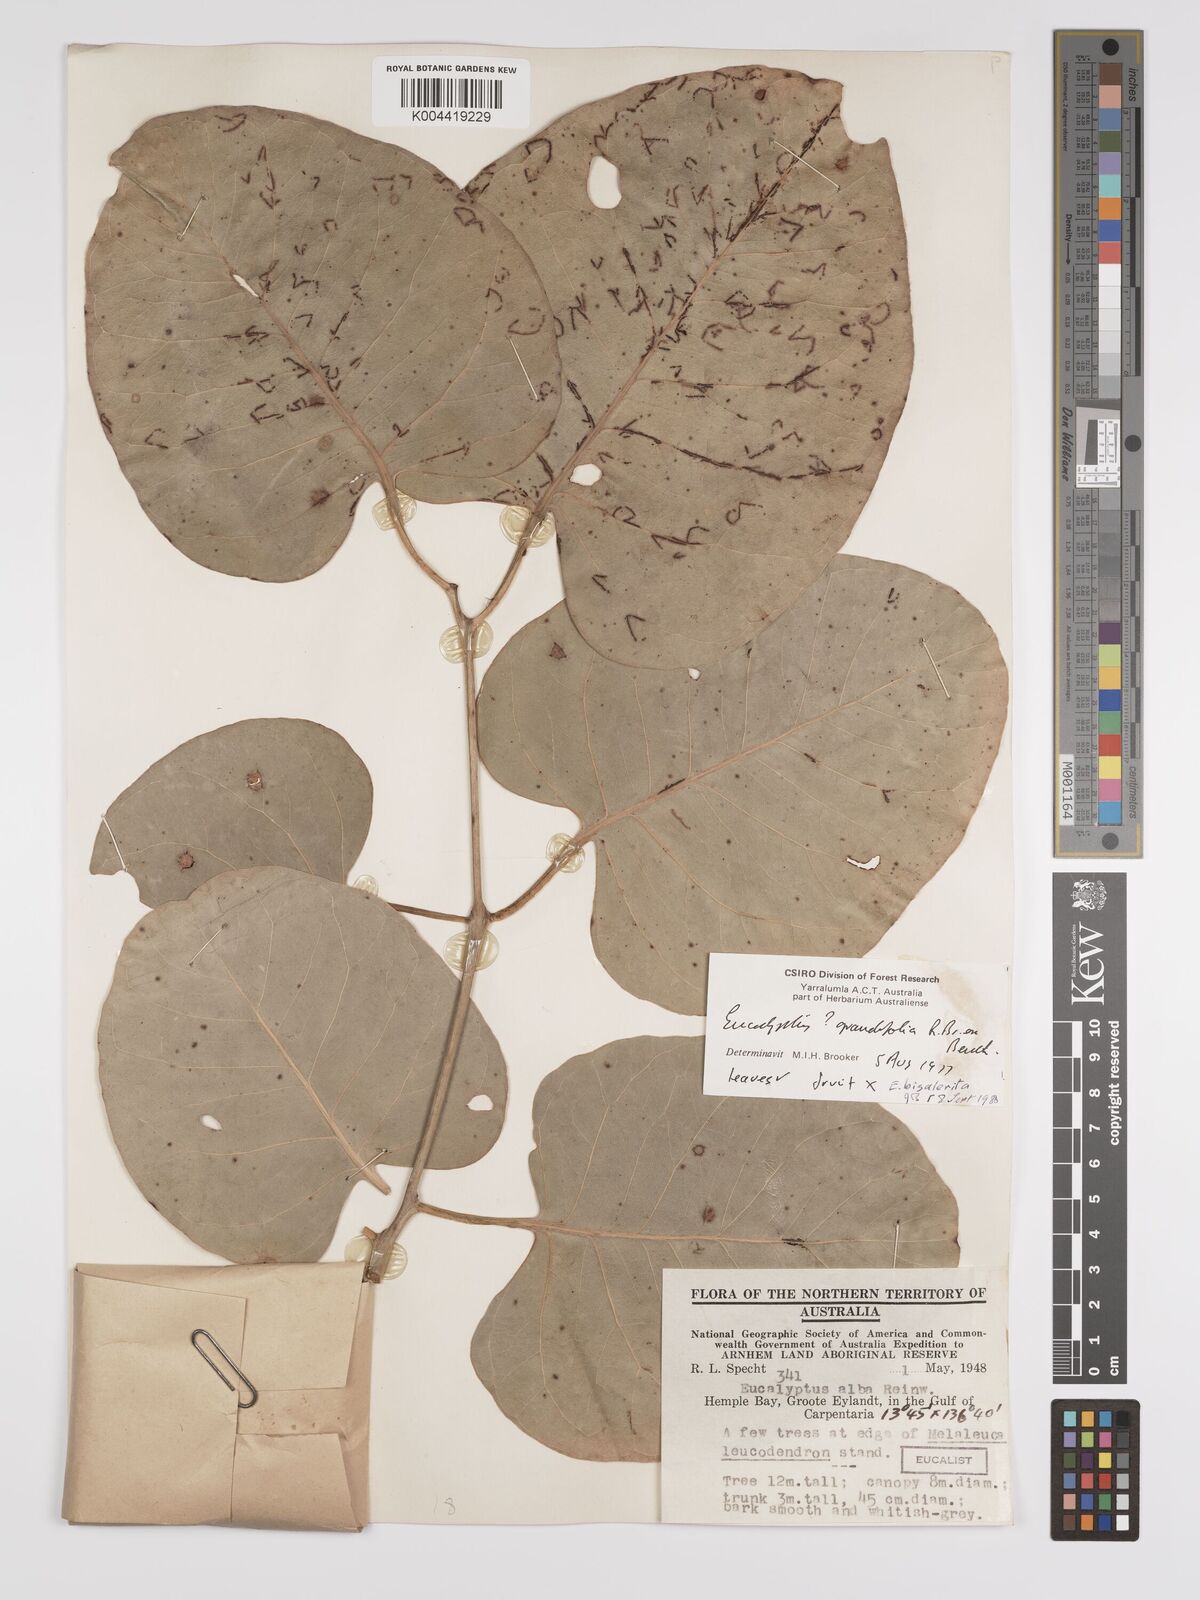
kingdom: Plantae
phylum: Tracheophyta
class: Magnoliopsida
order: Myrtales
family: Myrtaceae
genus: Eucalyptus
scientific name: Eucalyptus bigalerita
